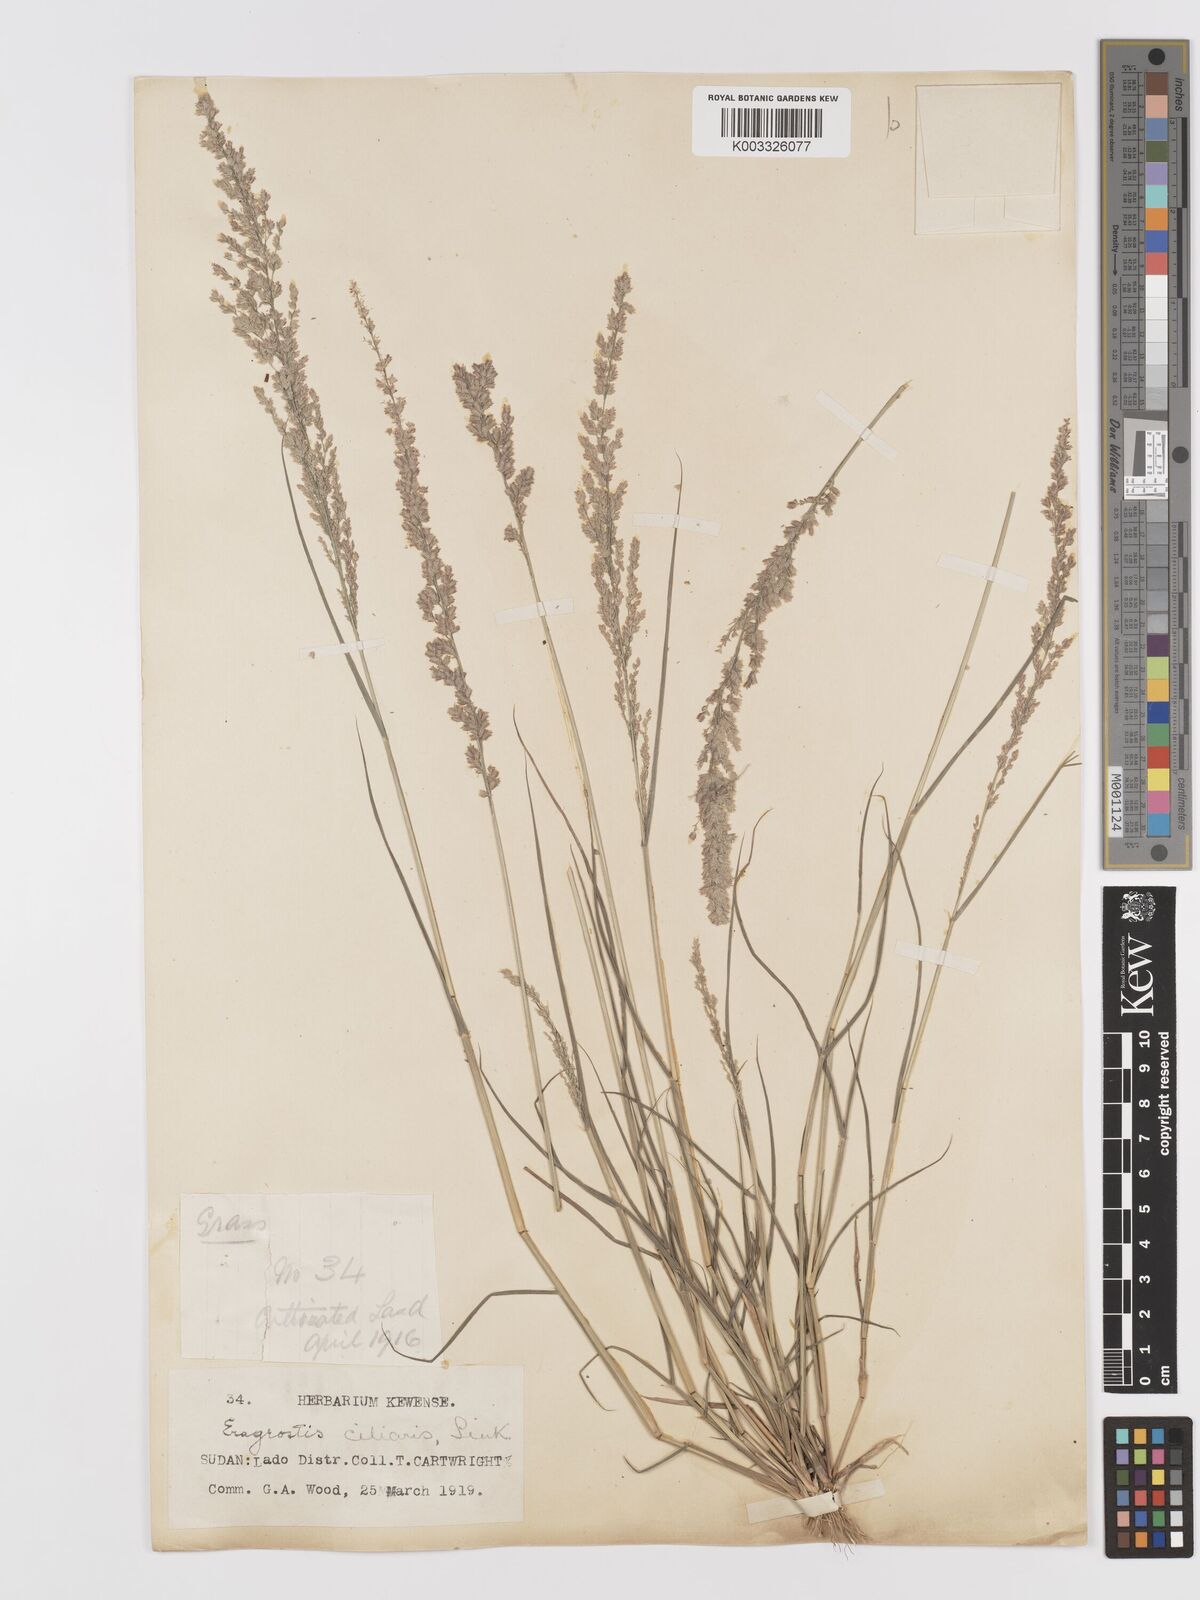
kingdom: Plantae
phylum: Tracheophyta
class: Liliopsida
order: Poales
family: Poaceae
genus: Eragrostis
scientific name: Eragrostis ciliaris
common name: Gophertail lovegrass
